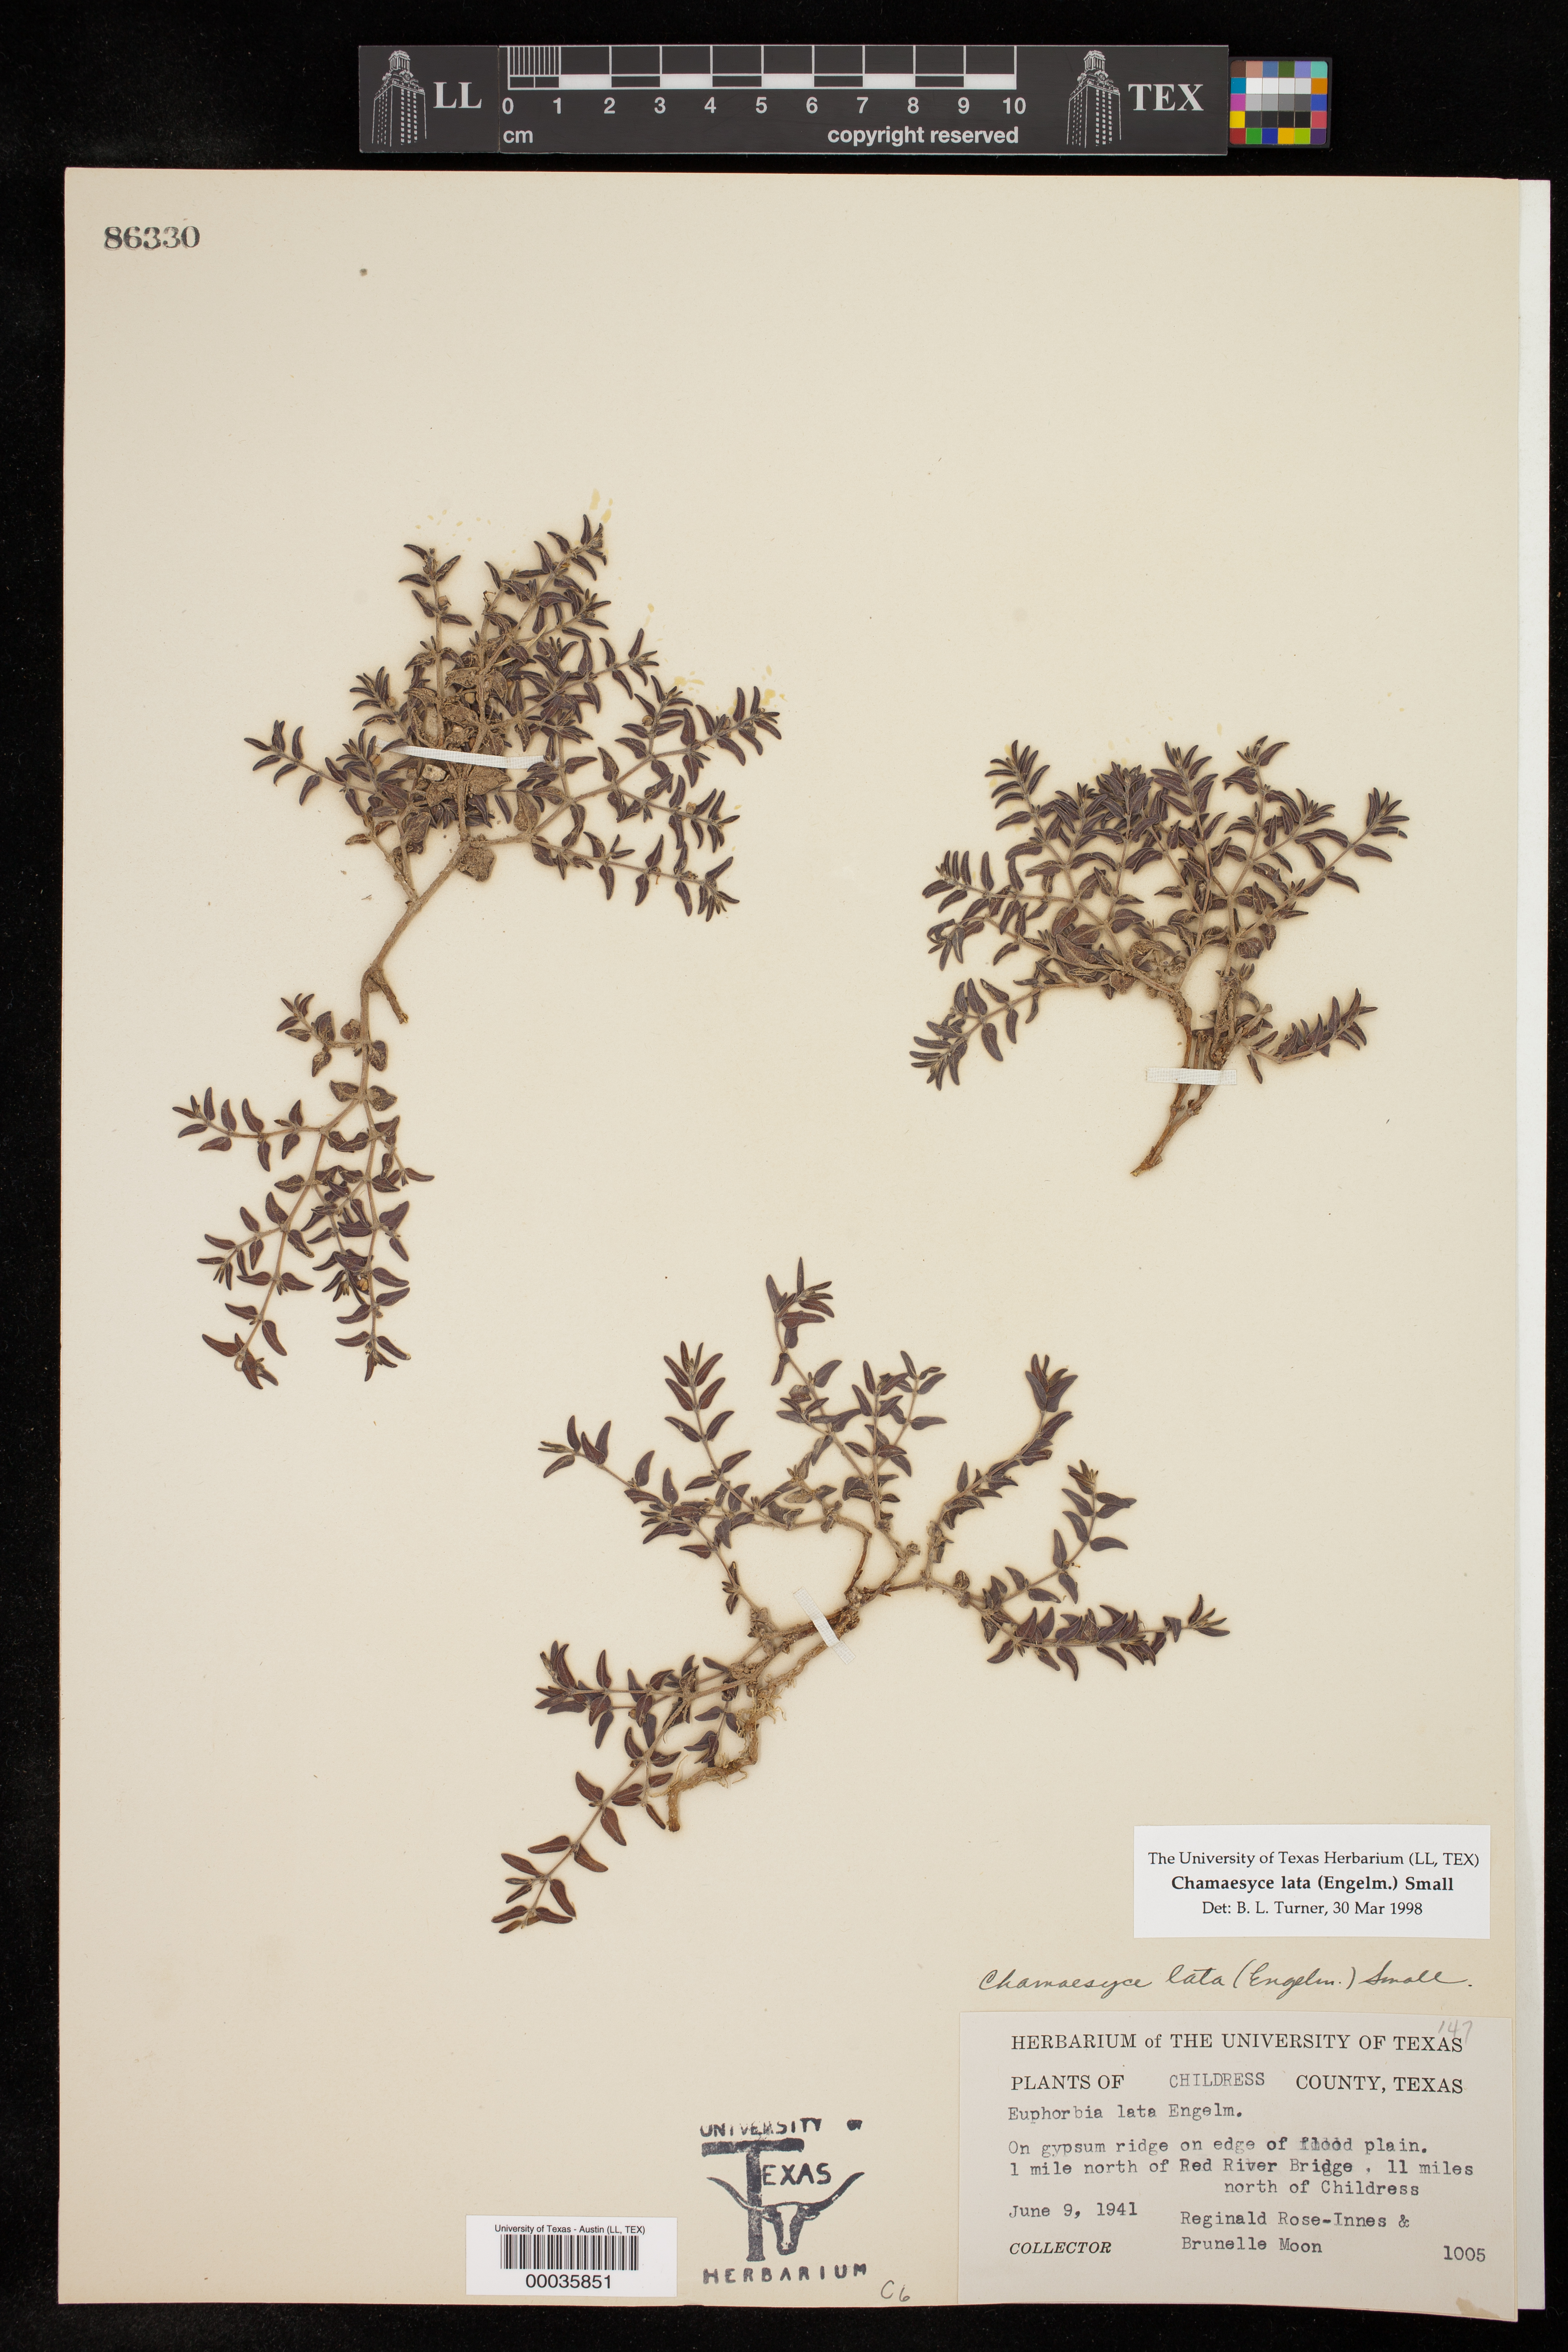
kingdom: Plantae
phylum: Tracheophyta
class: Magnoliopsida
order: Malpighiales
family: Euphorbiaceae
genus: Euphorbia
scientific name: Euphorbia lata
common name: Hoary euphorbia
